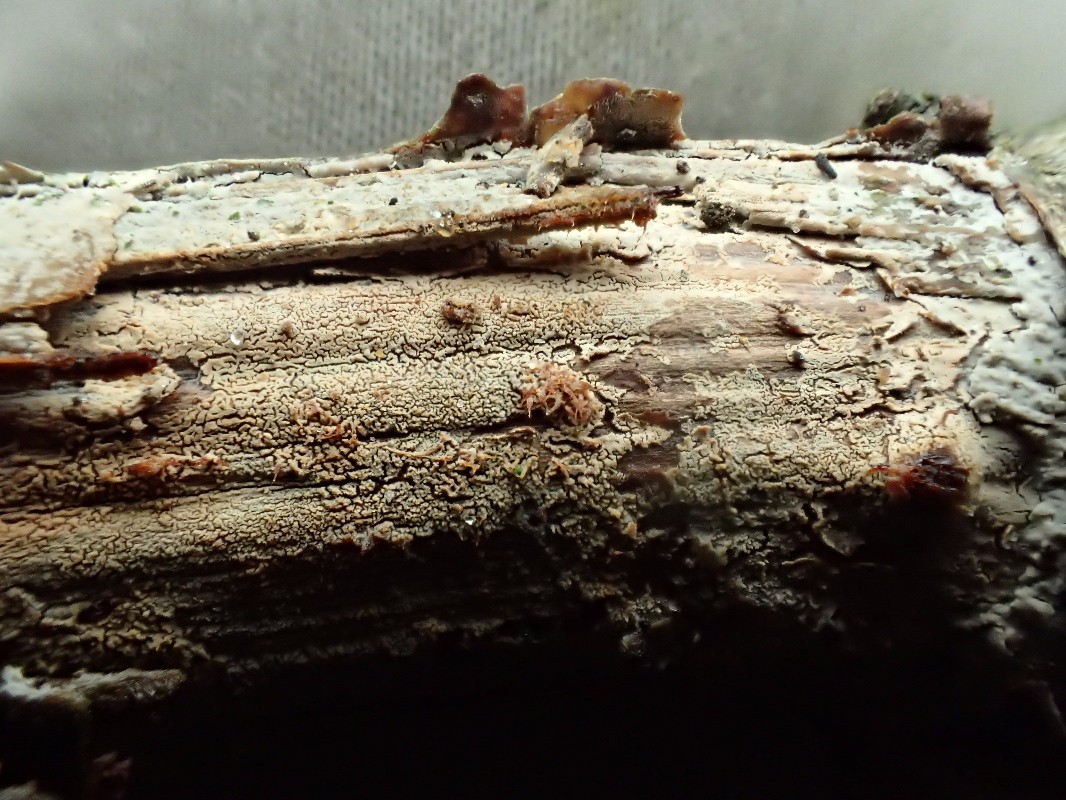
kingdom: Fungi
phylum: Basidiomycota
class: Agaricomycetes
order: Corticiales
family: Corticiaceae
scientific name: Corticiaceae
